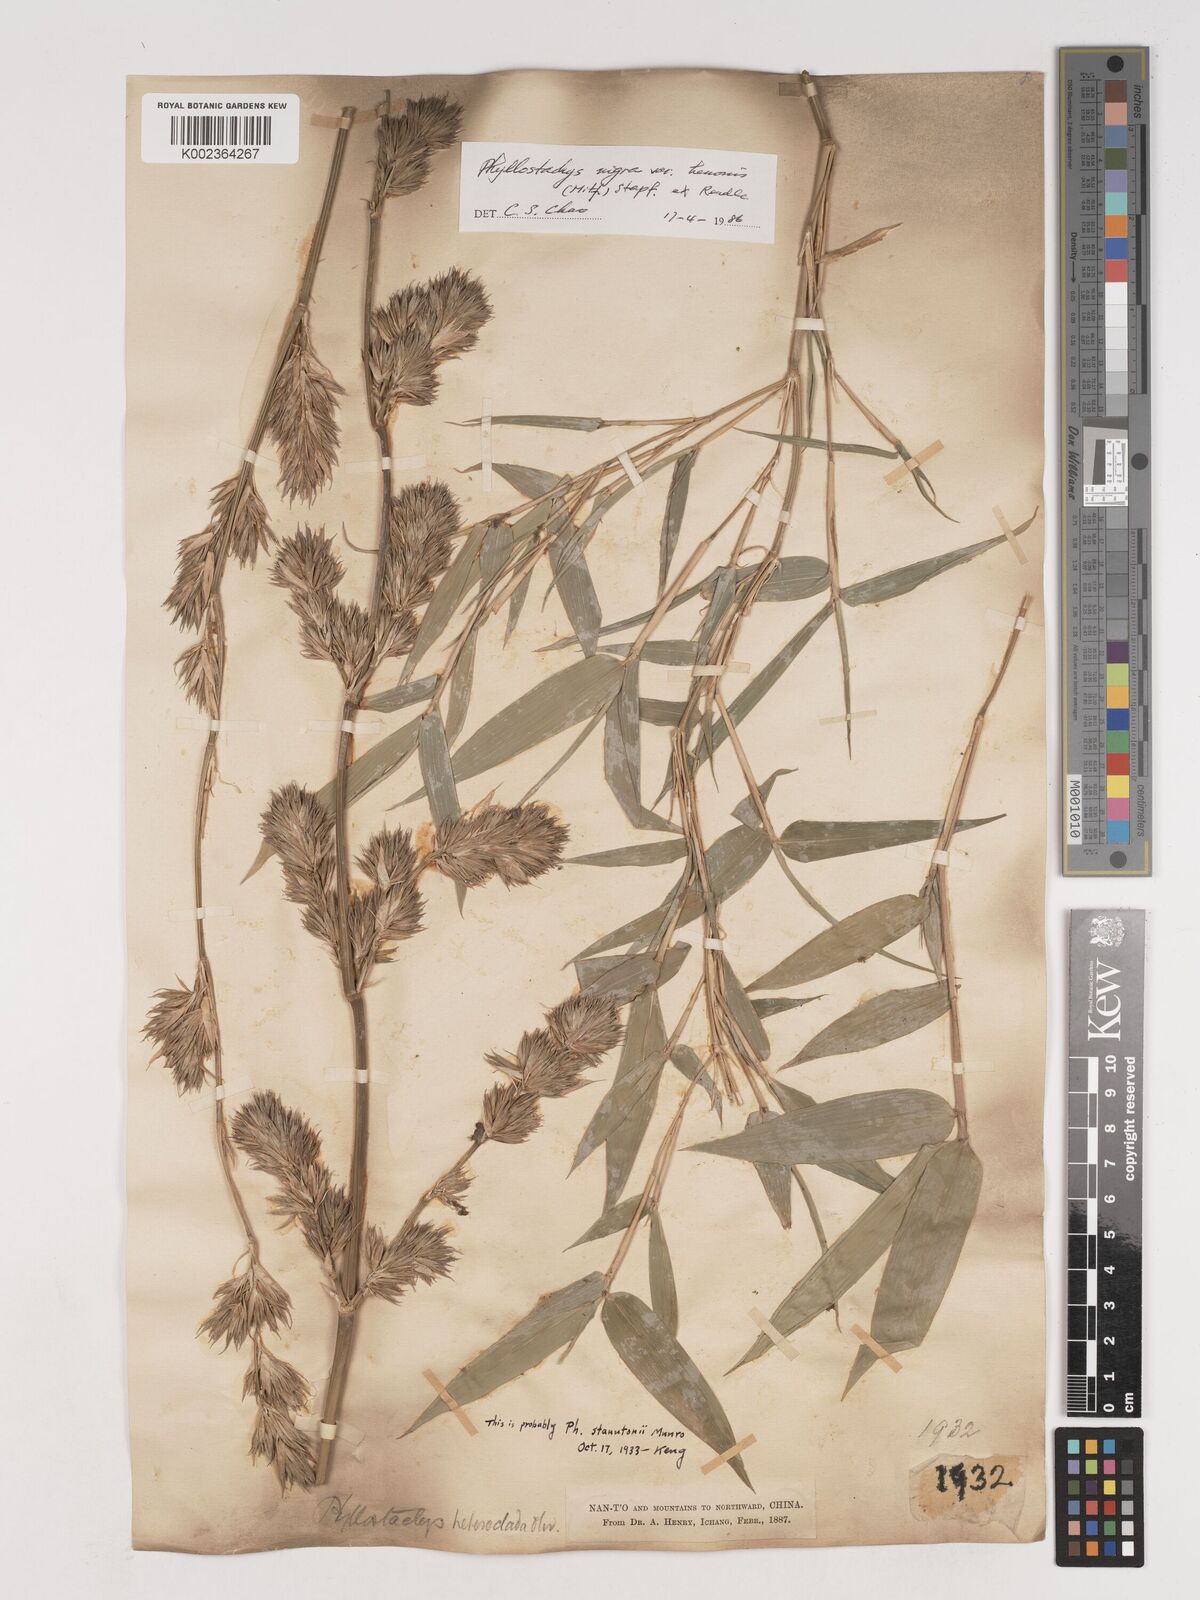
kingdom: Plantae
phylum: Tracheophyta
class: Liliopsida
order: Poales
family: Poaceae
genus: Phyllostachys
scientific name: Phyllostachys nigra
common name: Black bamboo
